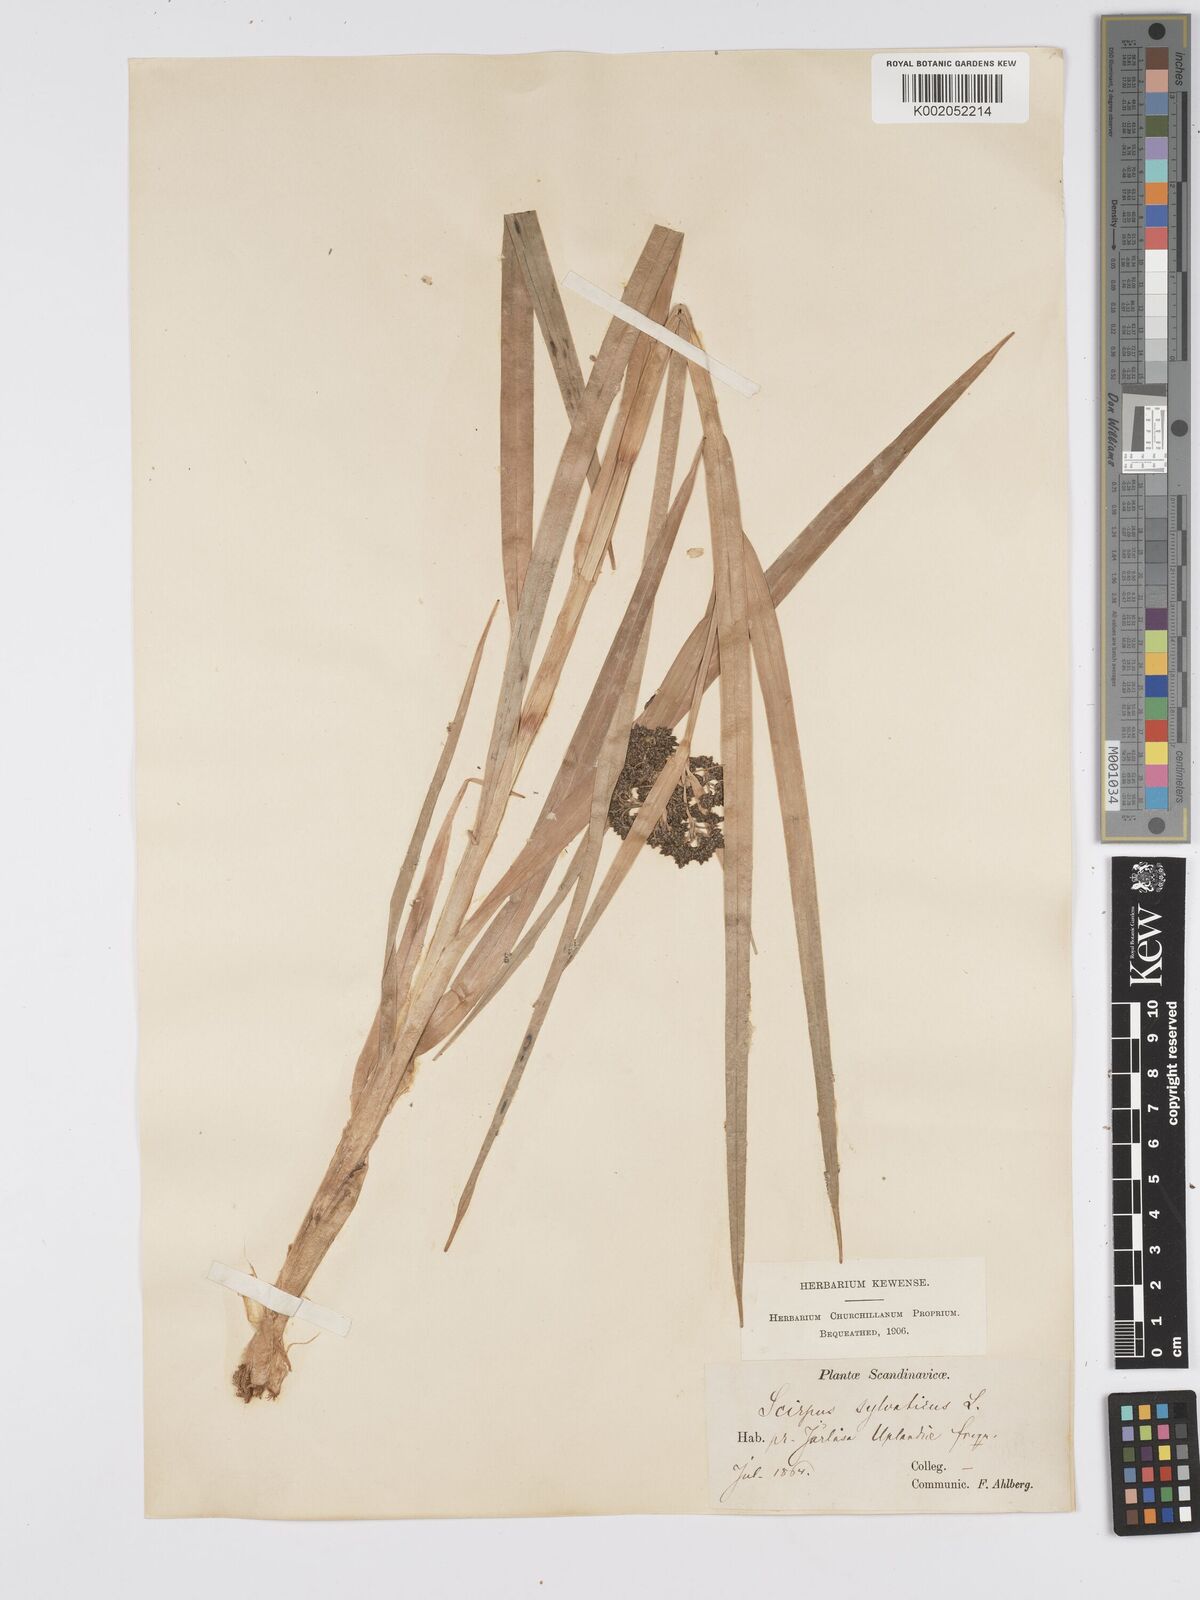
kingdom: Plantae
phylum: Tracheophyta
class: Liliopsida
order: Poales
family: Cyperaceae
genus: Scirpus
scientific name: Scirpus sylvaticus
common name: Wood club-rush
